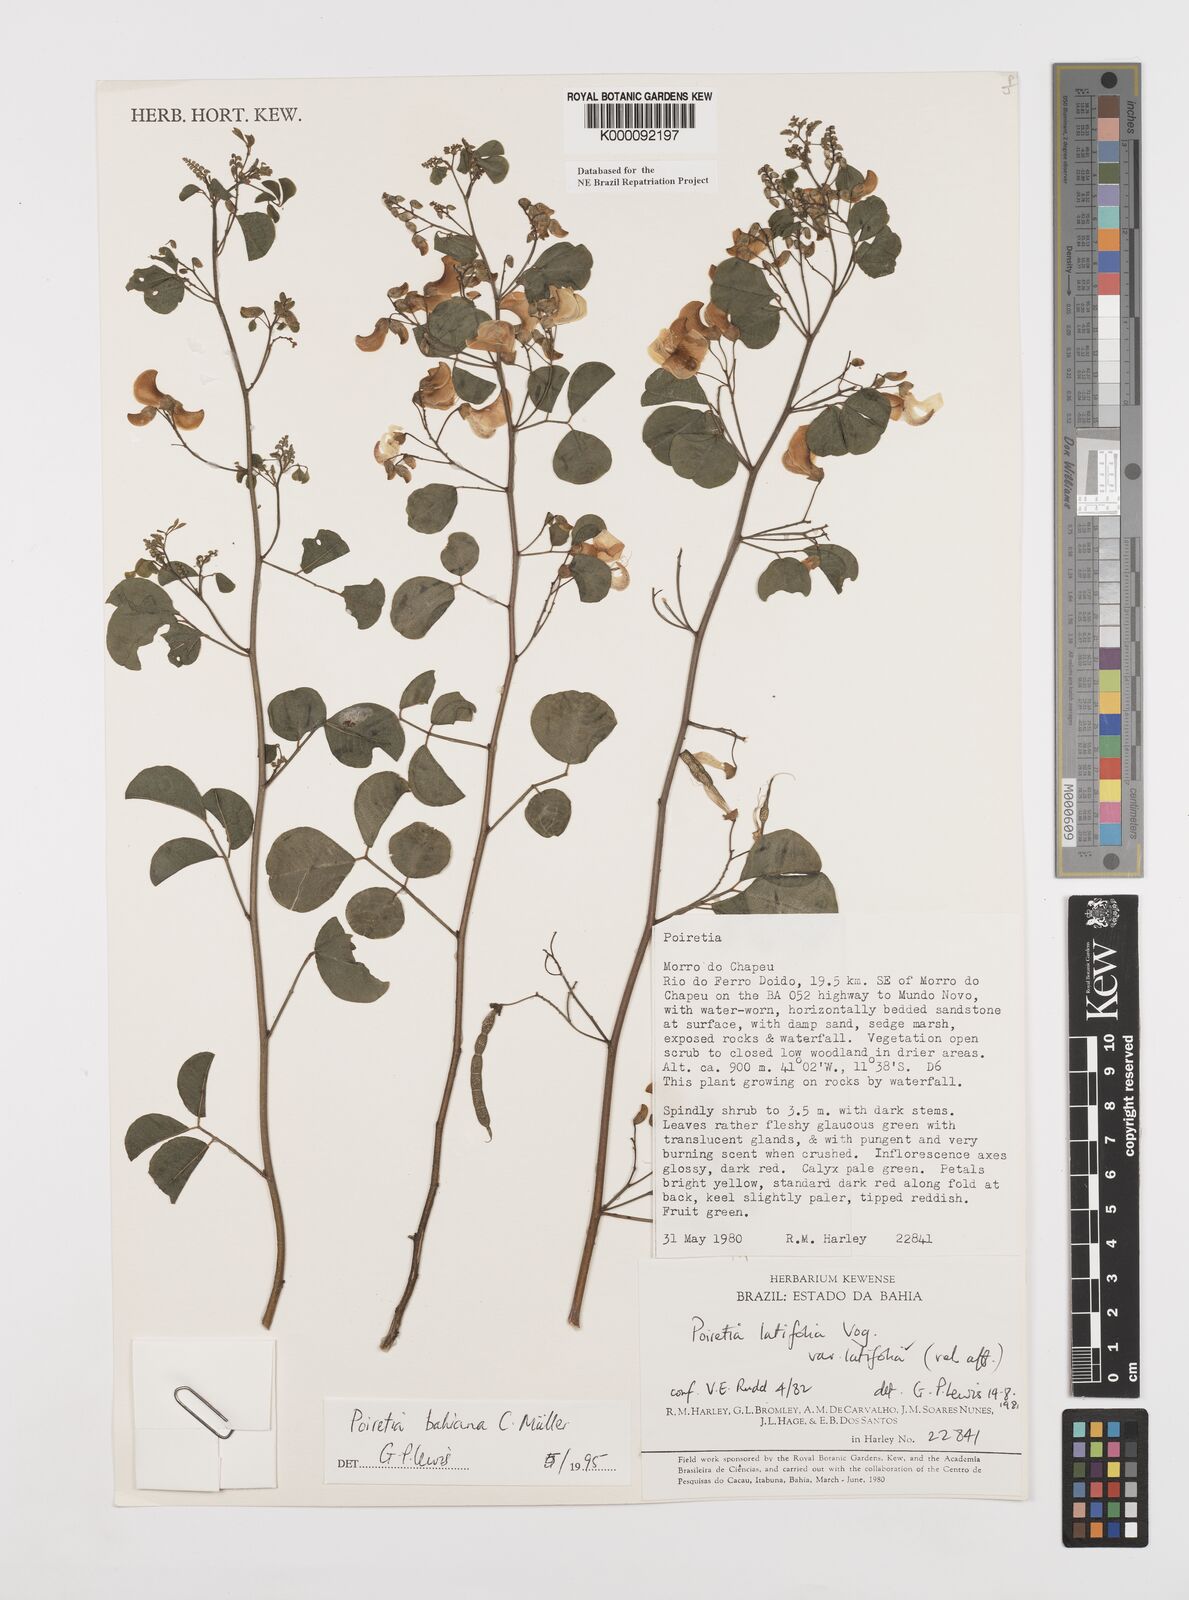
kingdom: Plantae
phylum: Tracheophyta
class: Magnoliopsida
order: Fabales
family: Fabaceae
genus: Poiretia
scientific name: Poiretia
